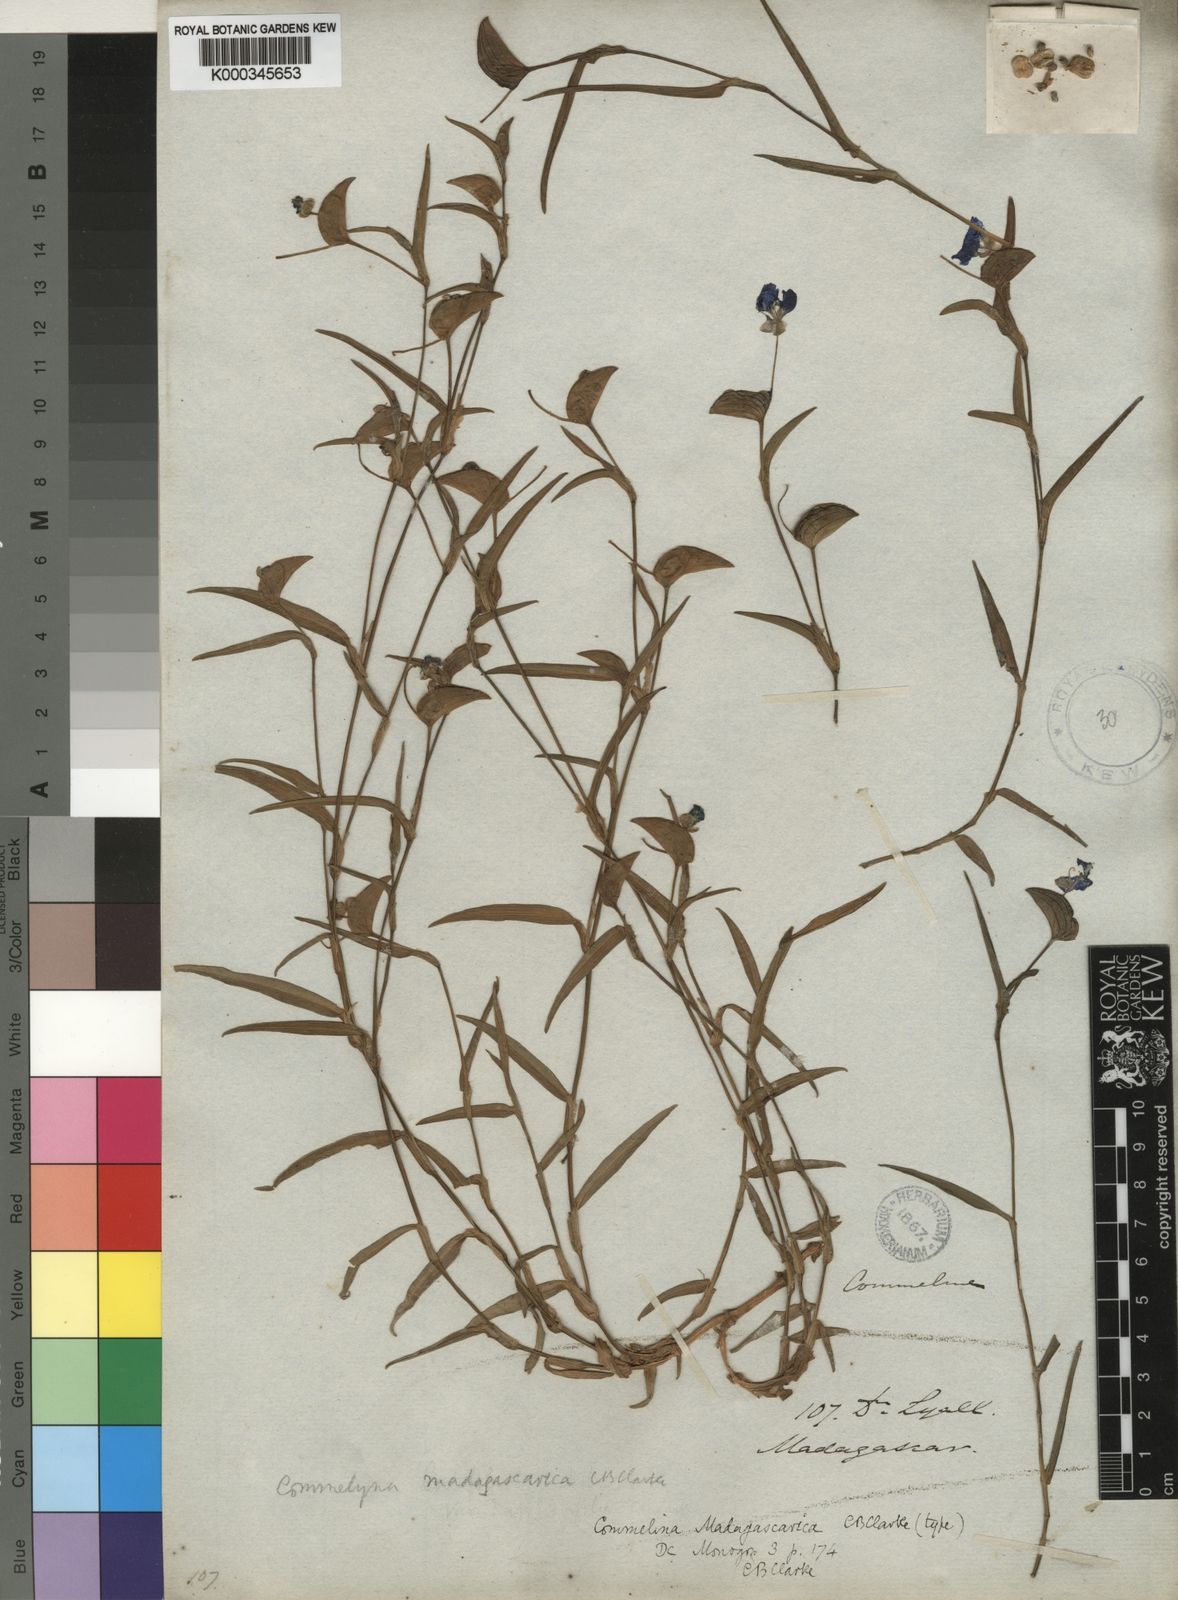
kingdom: Plantae
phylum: Tracheophyta
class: Liliopsida
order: Commelinales
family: Commelinaceae
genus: Commelina
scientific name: Commelina madagascarica
